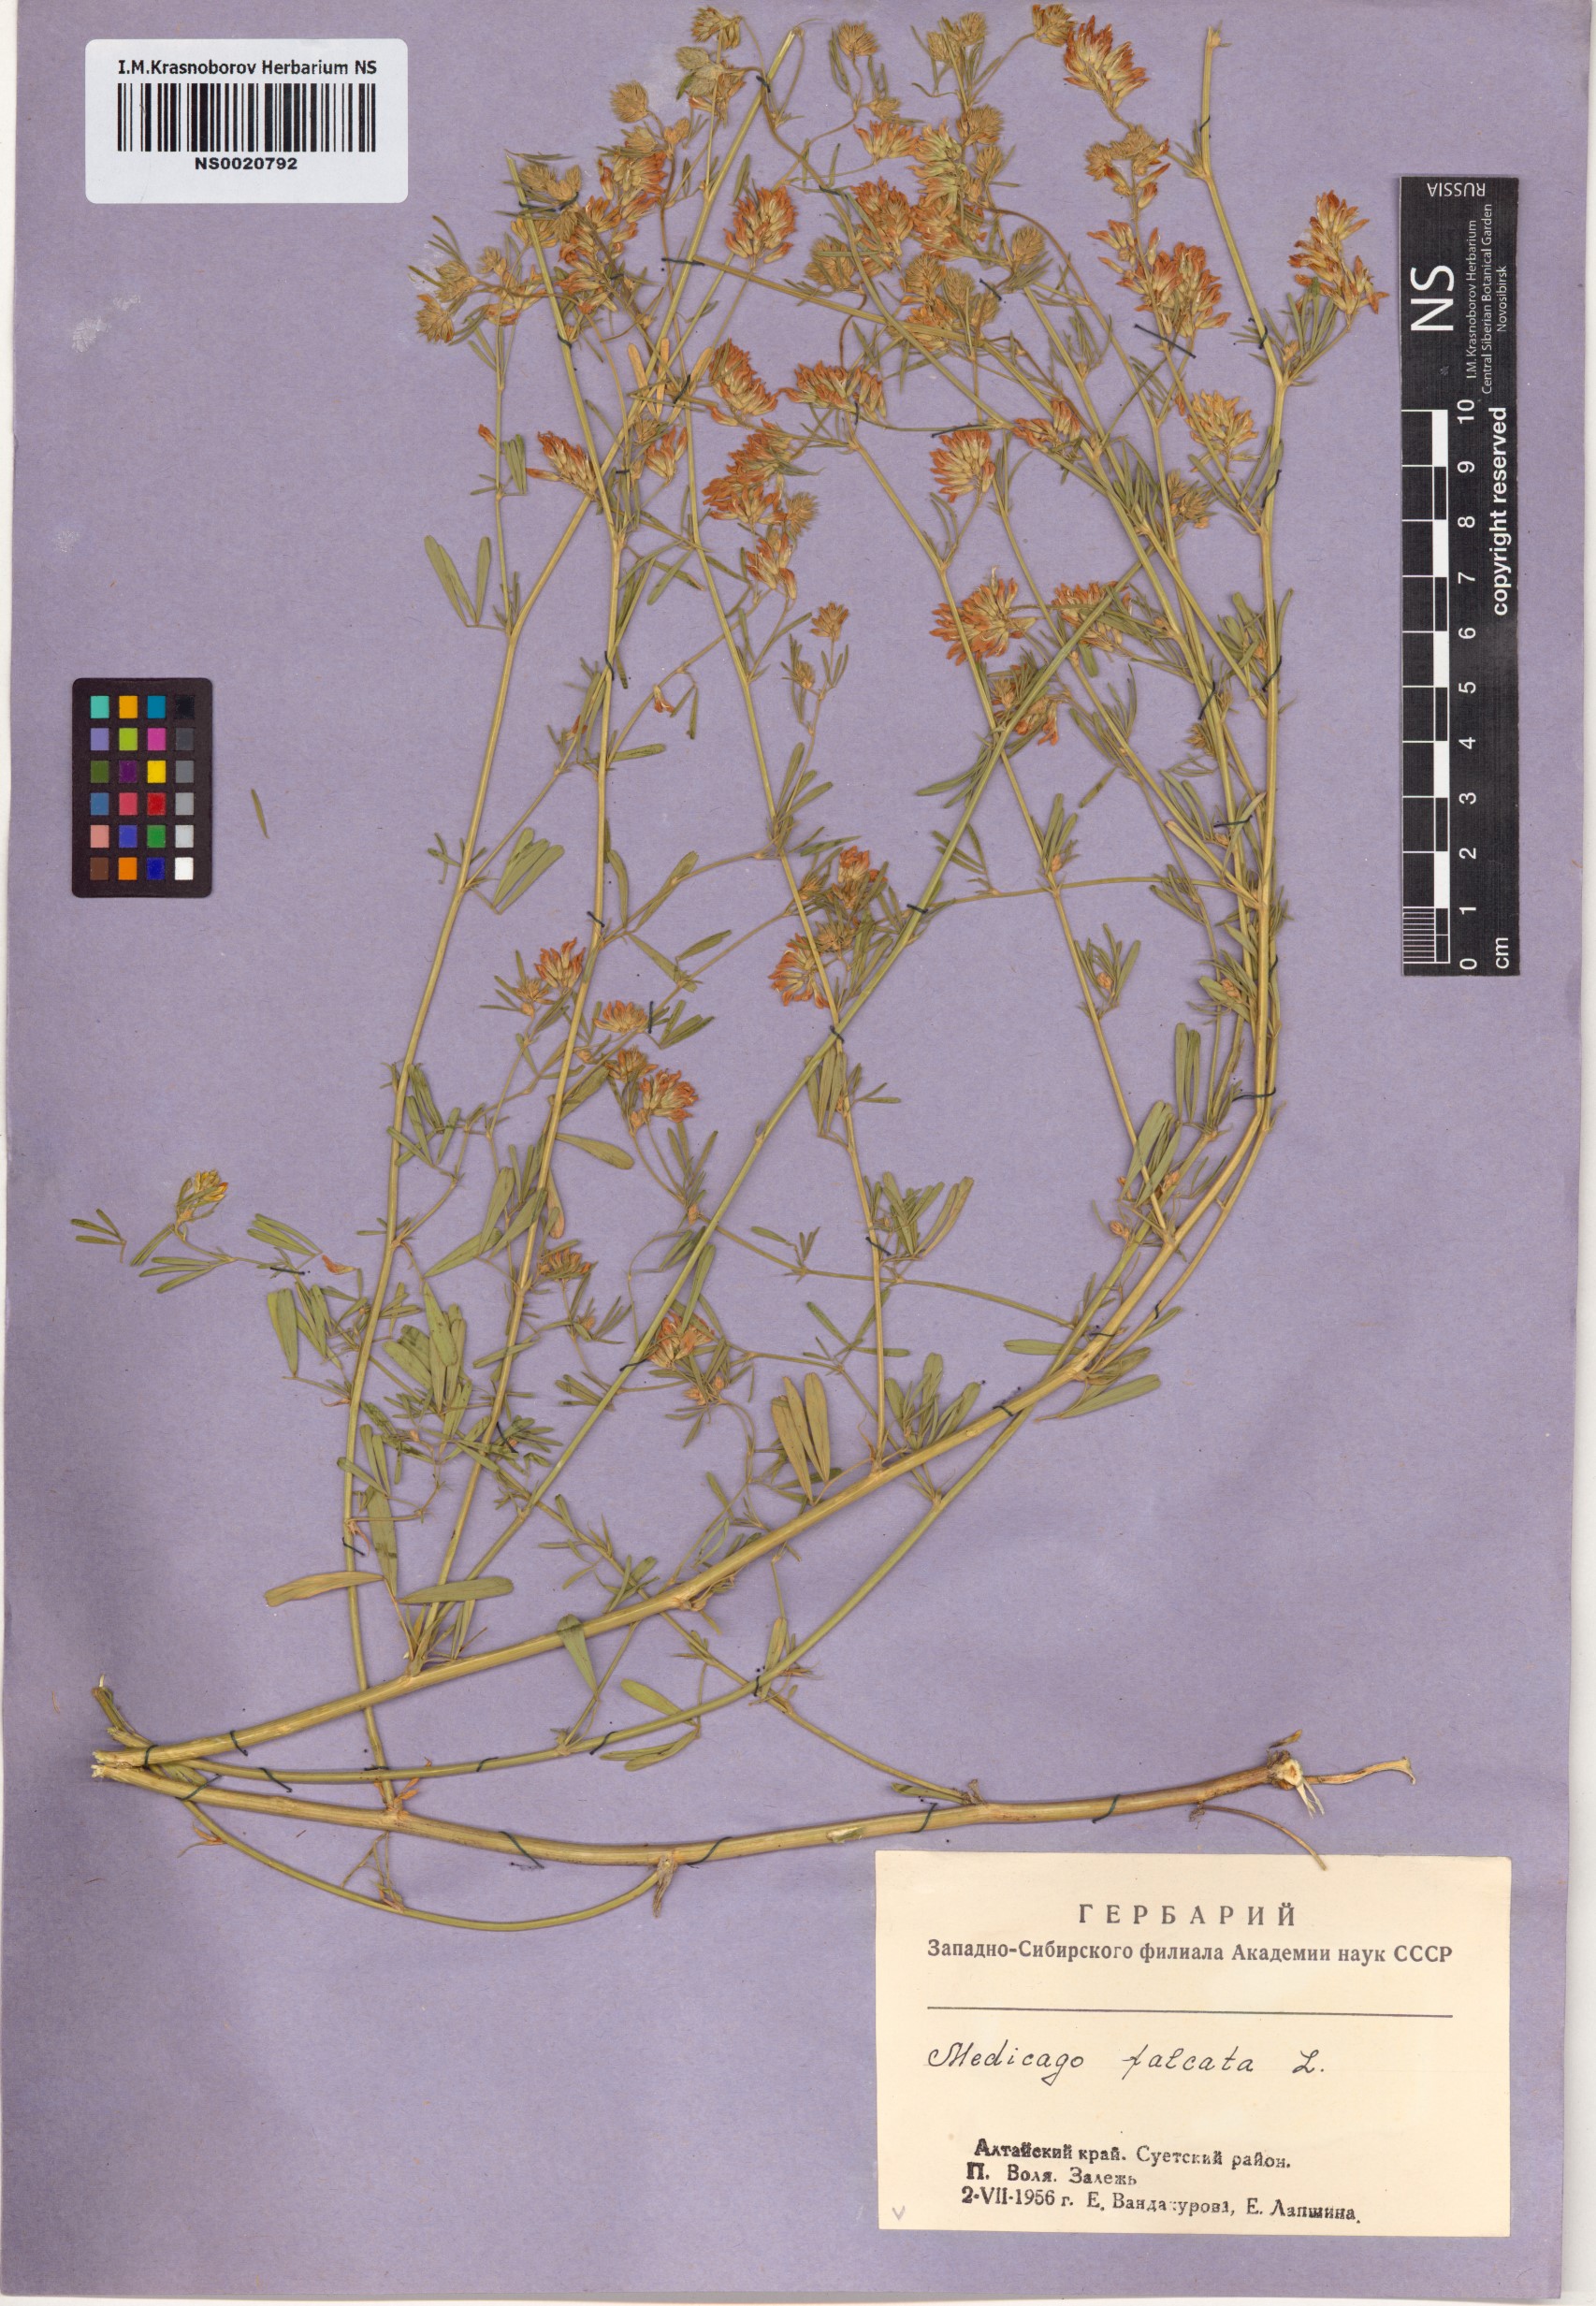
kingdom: Plantae
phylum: Tracheophyta
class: Magnoliopsida
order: Fabales
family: Fabaceae
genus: Medicago
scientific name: Medicago falcata
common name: Sickle medick
